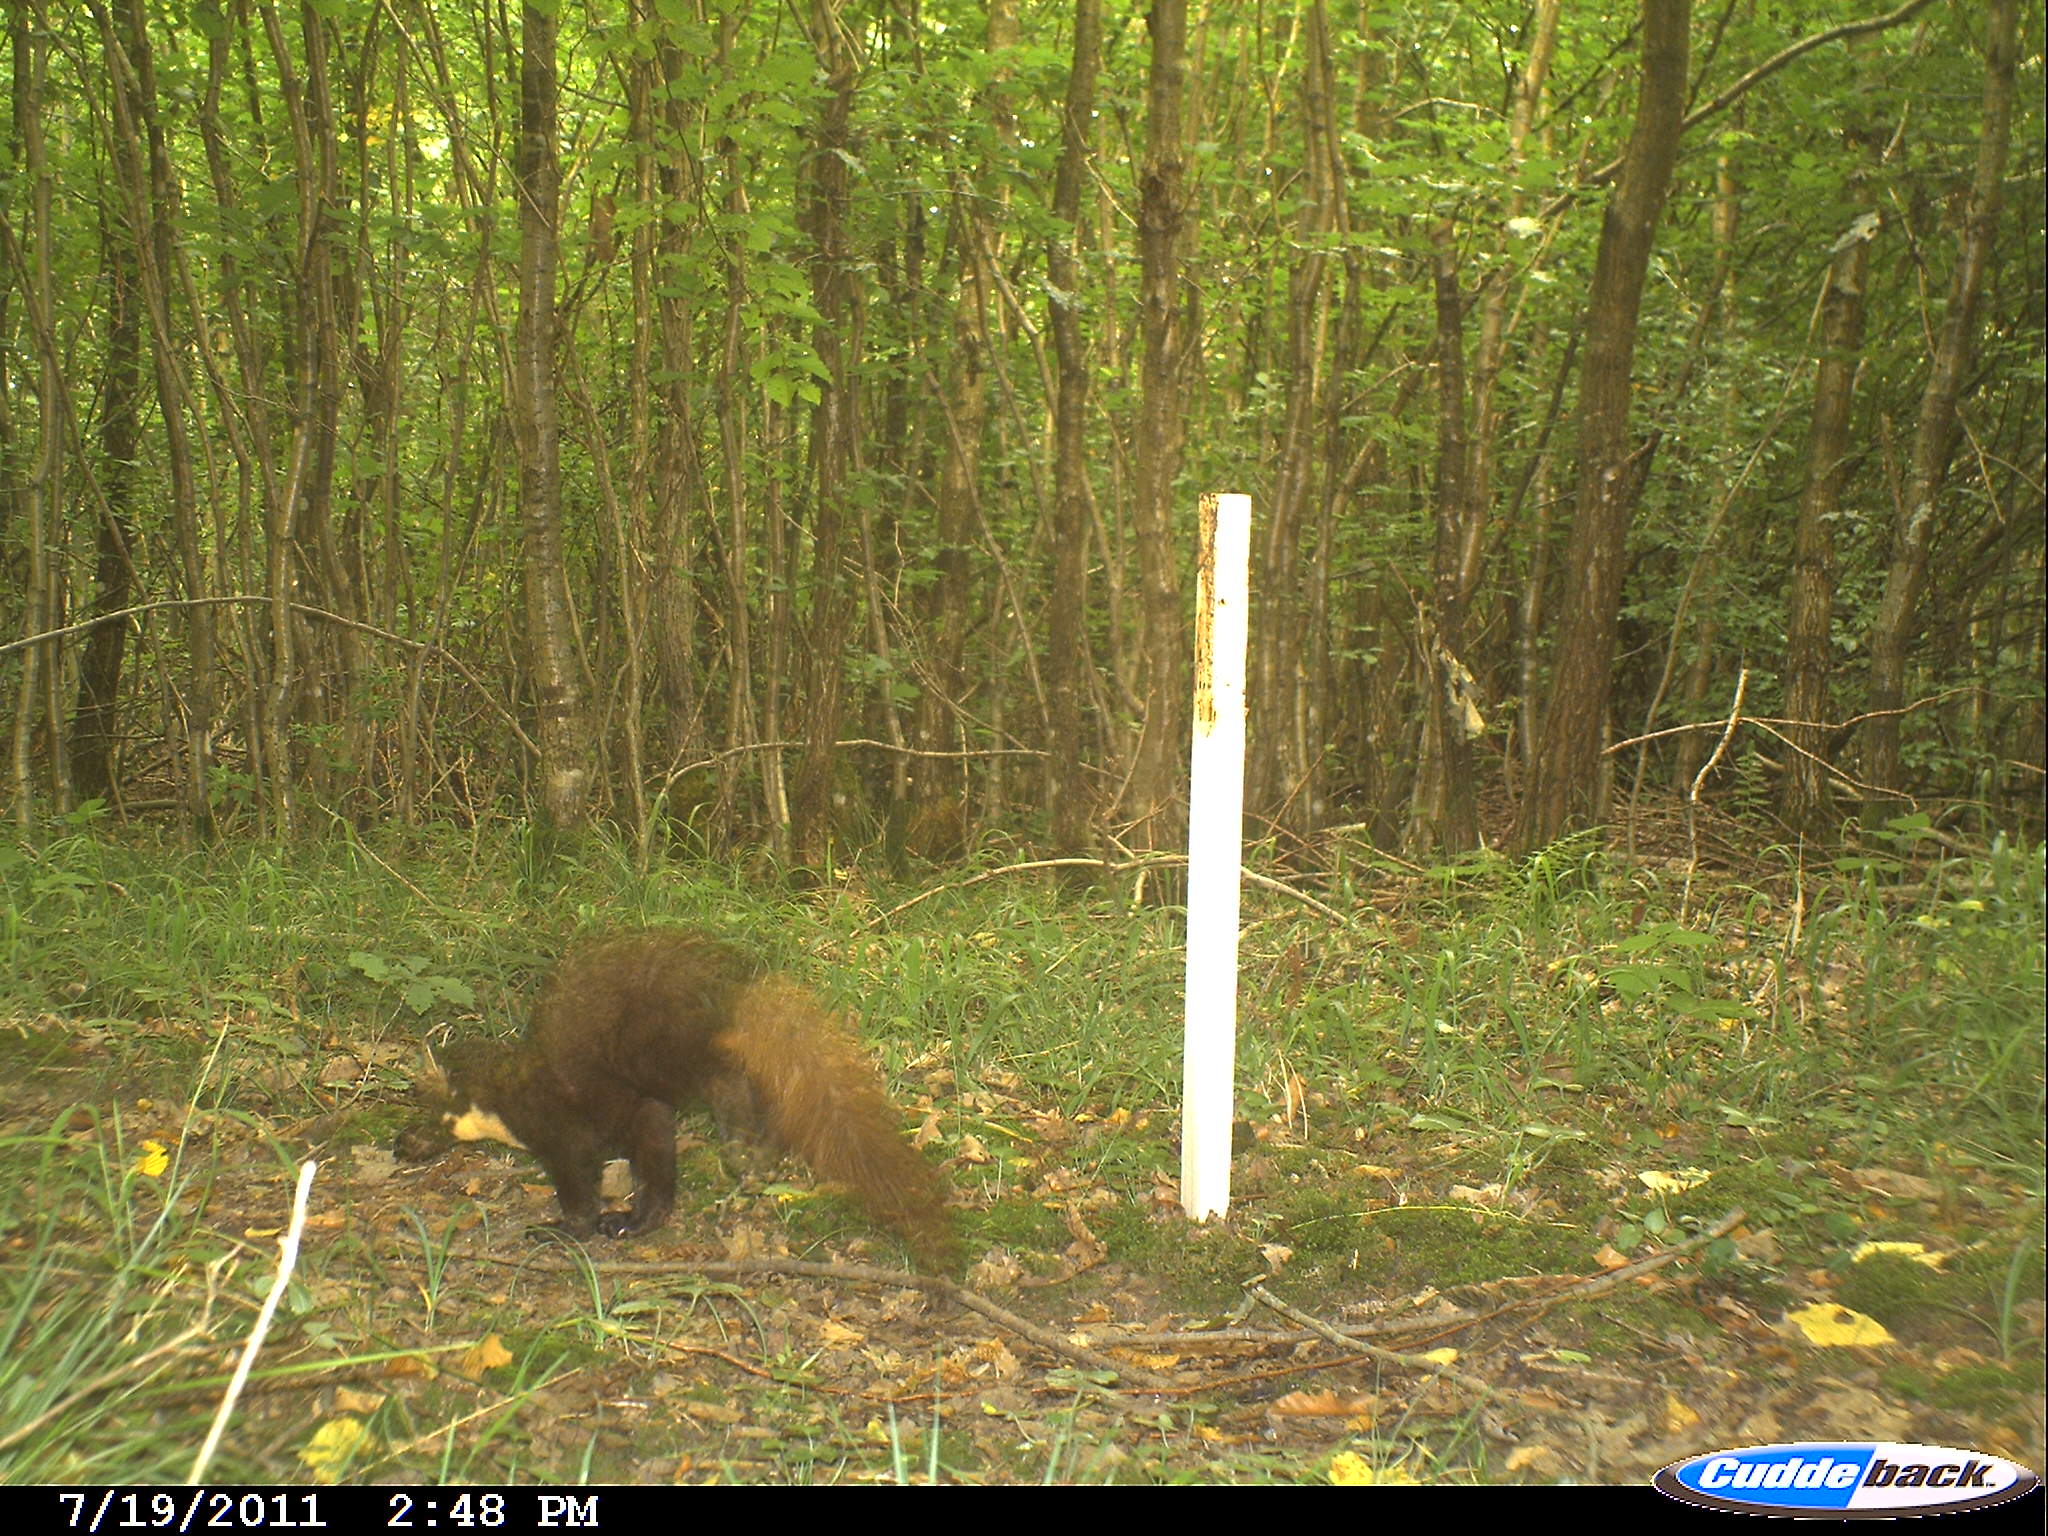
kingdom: Animalia
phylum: Chordata
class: Mammalia
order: Carnivora
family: Mustelidae
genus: Martes
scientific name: Martes martes
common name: European pine marten
